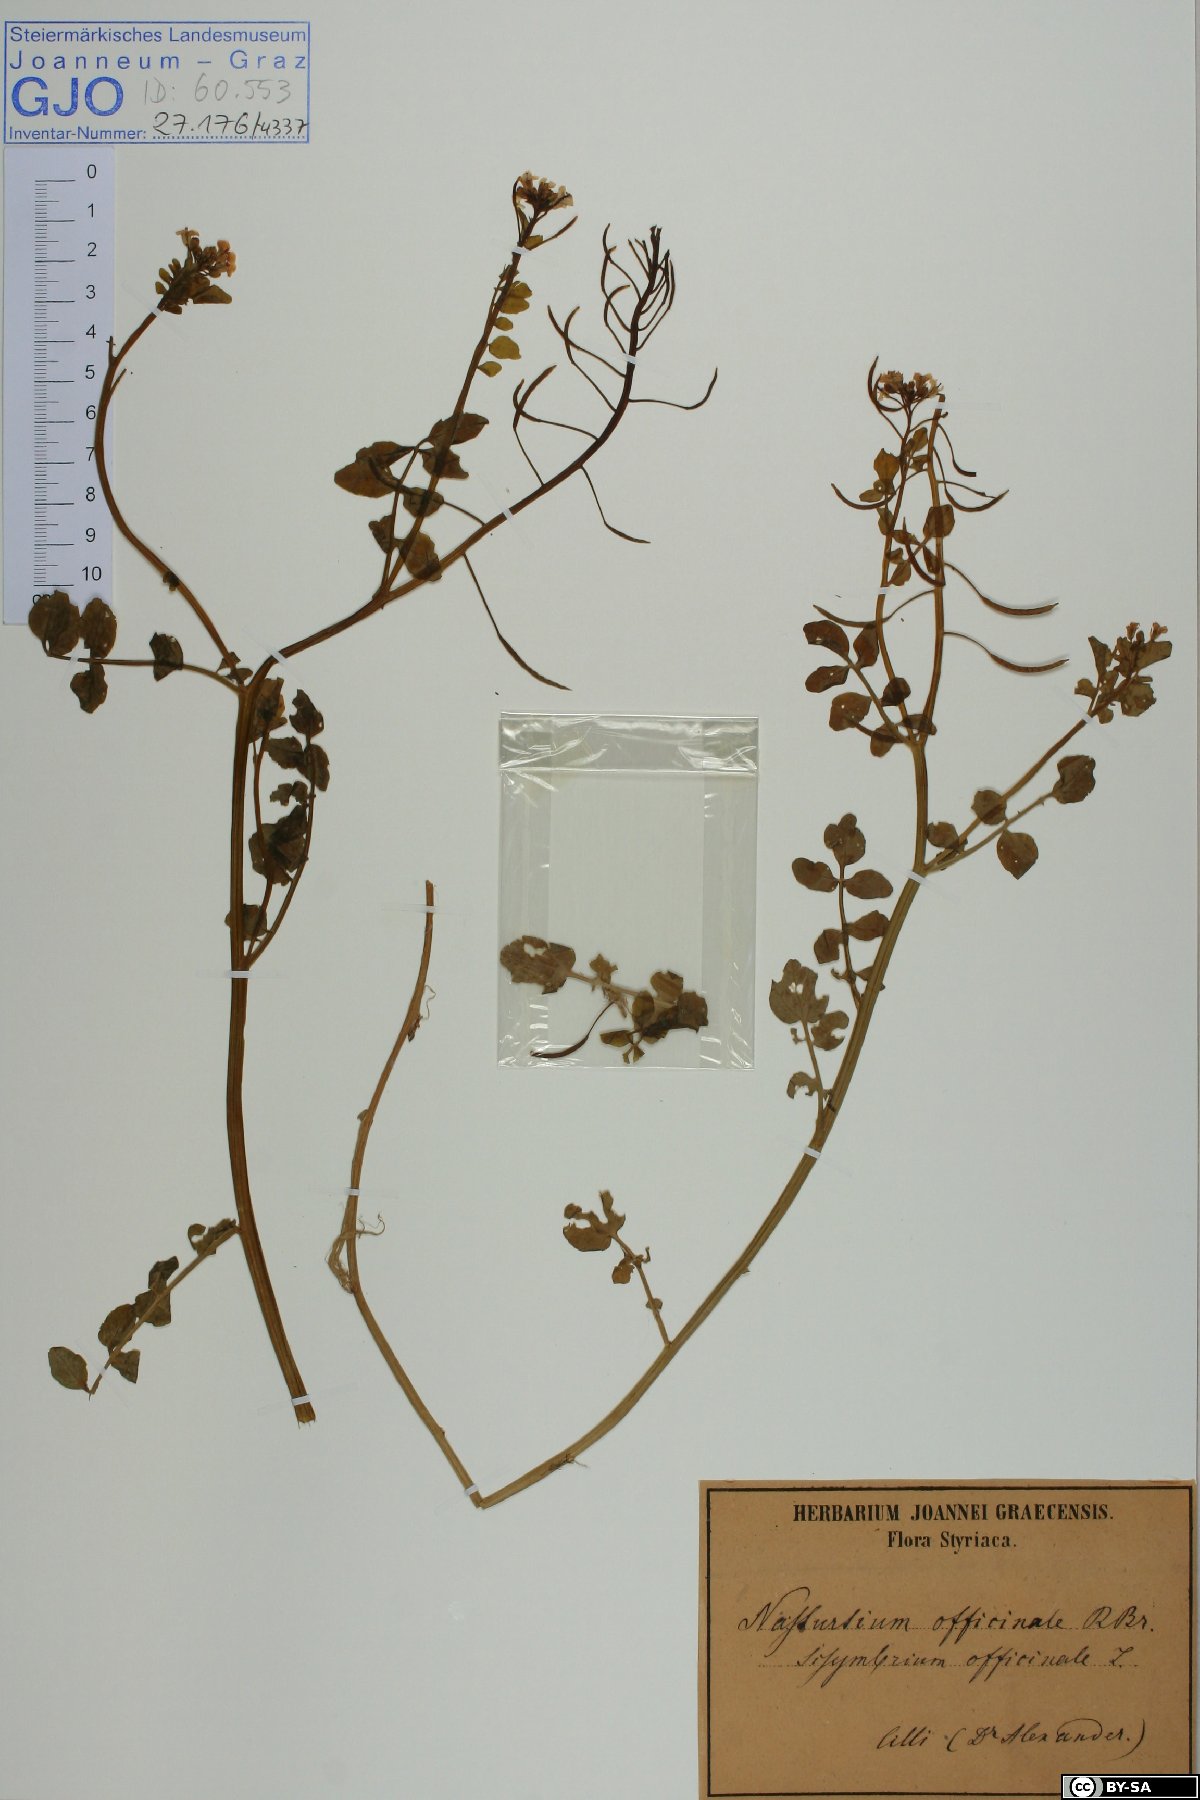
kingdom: Plantae
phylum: Tracheophyta
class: Magnoliopsida
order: Brassicales
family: Brassicaceae
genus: Nasturtium
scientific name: Nasturtium officinale
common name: Watercress
